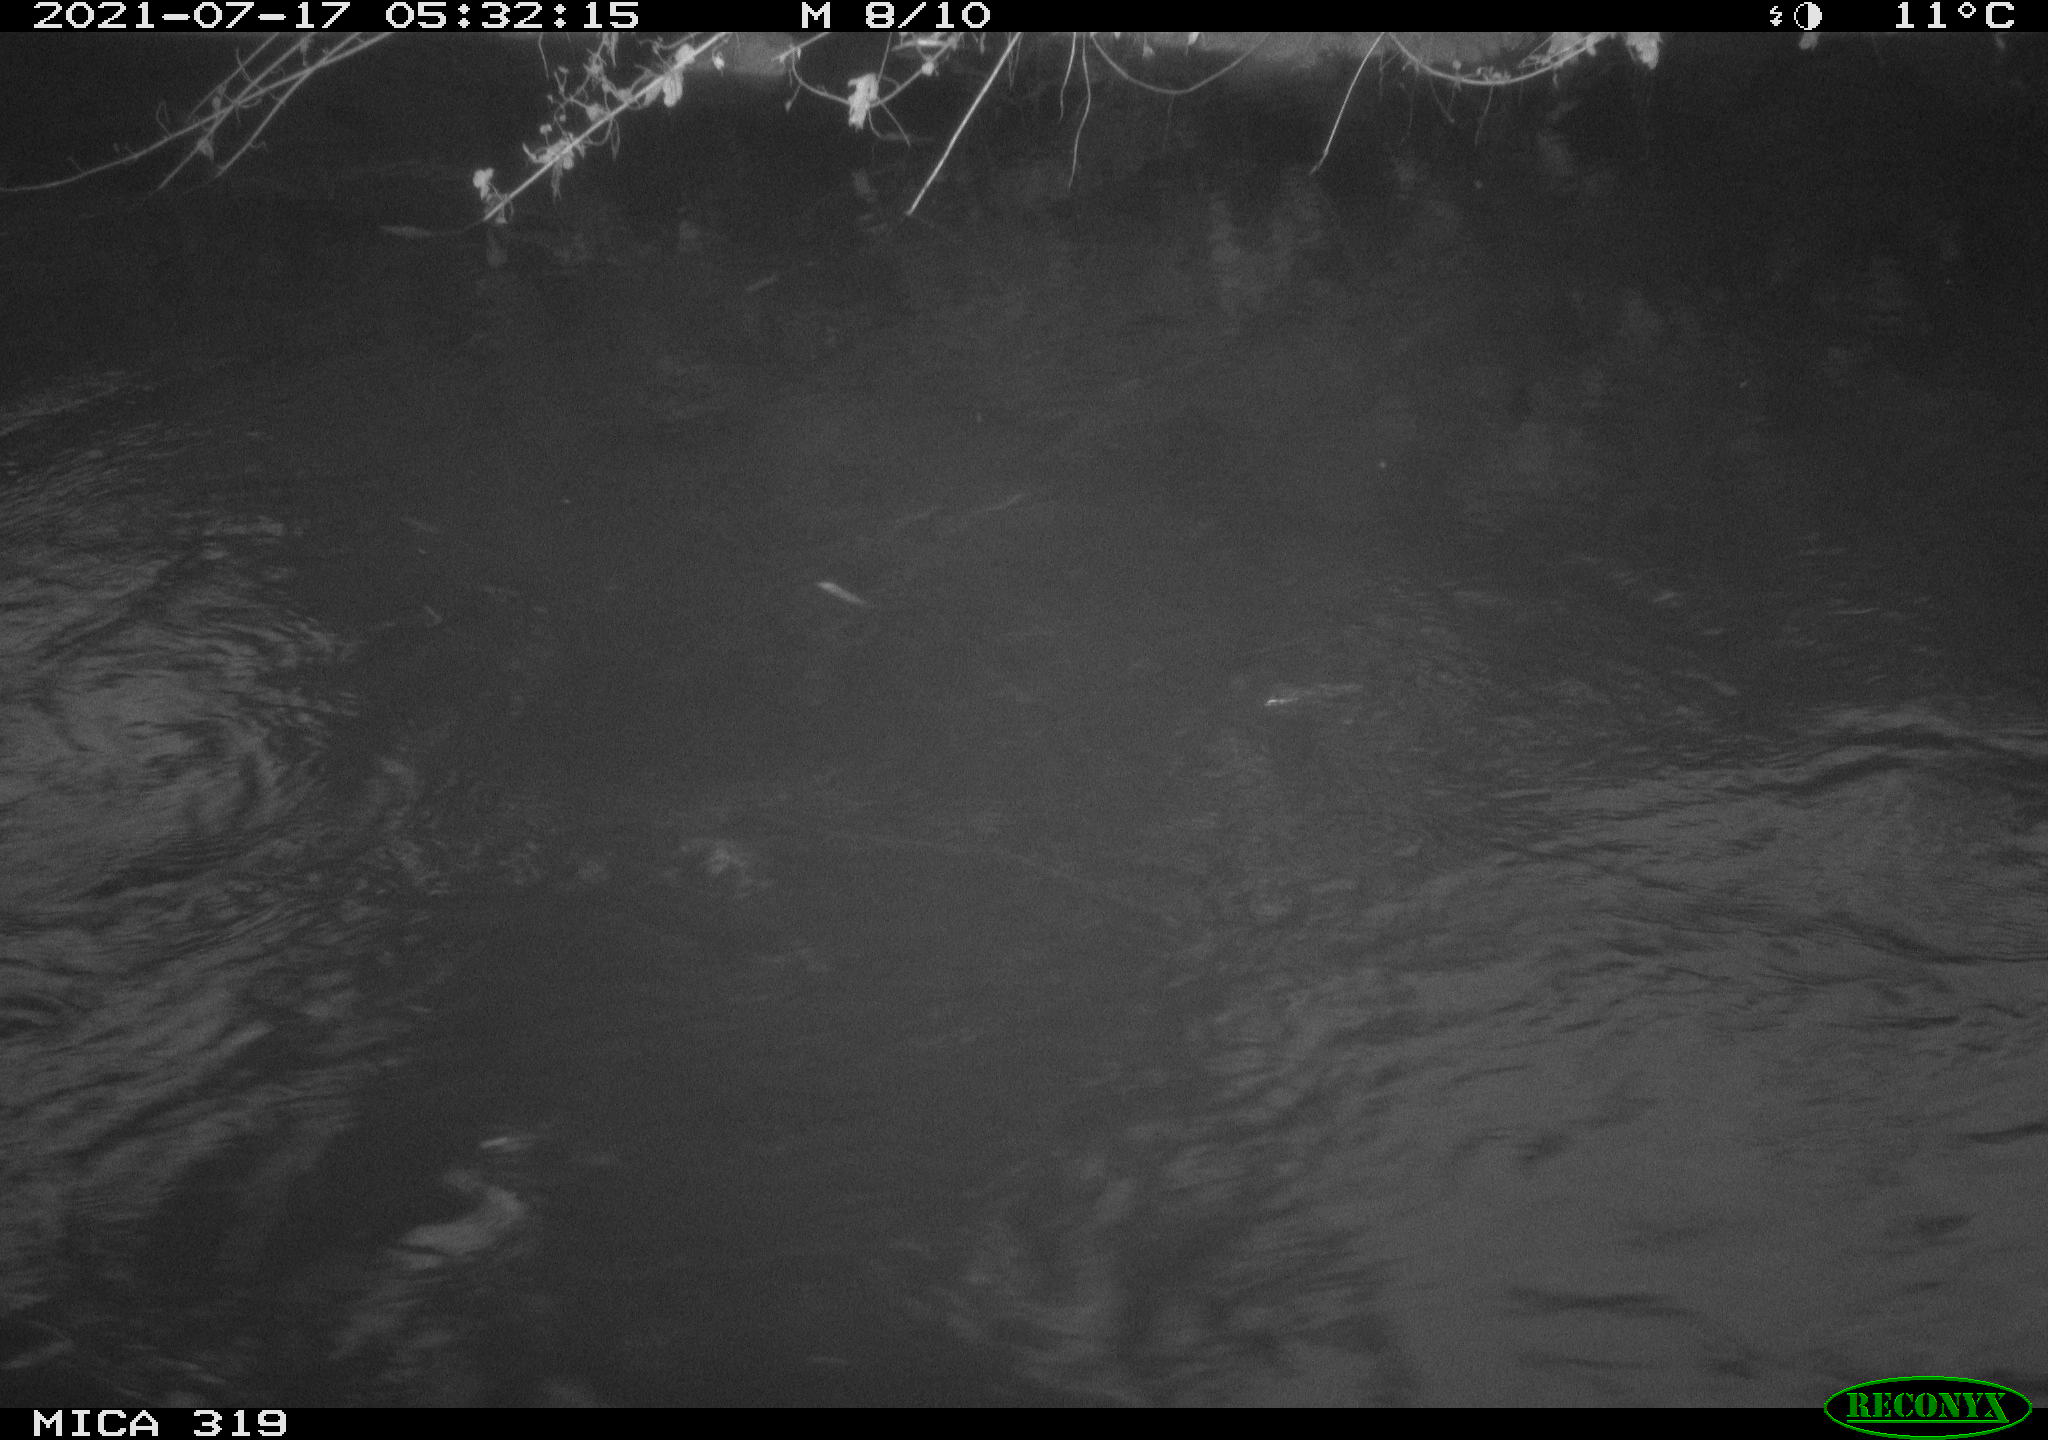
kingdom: Animalia
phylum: Chordata
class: Aves
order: Anseriformes
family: Anatidae
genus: Anas
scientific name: Anas platyrhynchos
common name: Mallard
